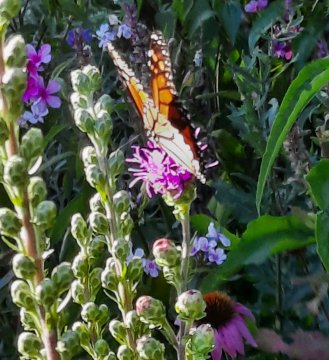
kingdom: Animalia
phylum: Arthropoda
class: Insecta
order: Lepidoptera
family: Nymphalidae
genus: Danaus
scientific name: Danaus plexippus
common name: Monarch
